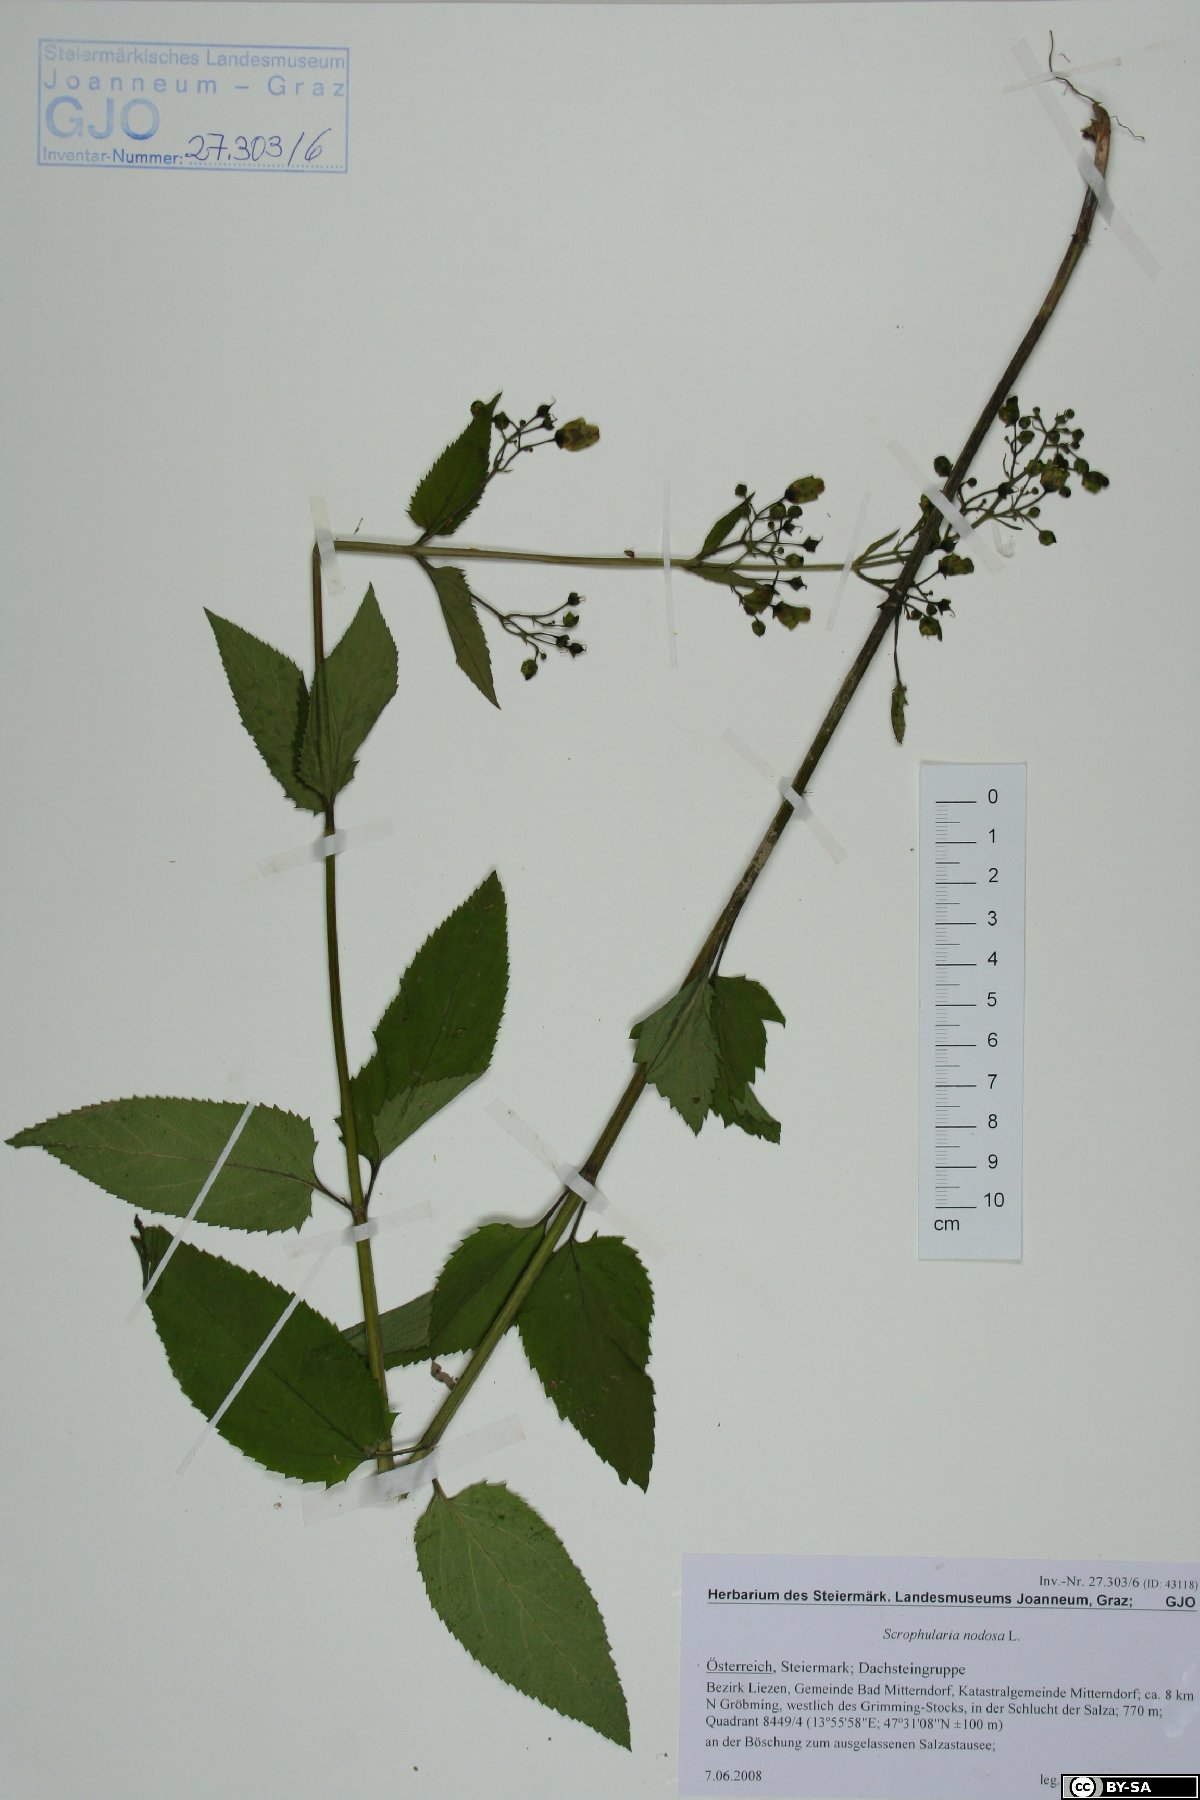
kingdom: Plantae
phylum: Tracheophyta
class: Magnoliopsida
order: Lamiales
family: Scrophulariaceae
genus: Scrophularia
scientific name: Scrophularia nodosa
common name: Common figwort
